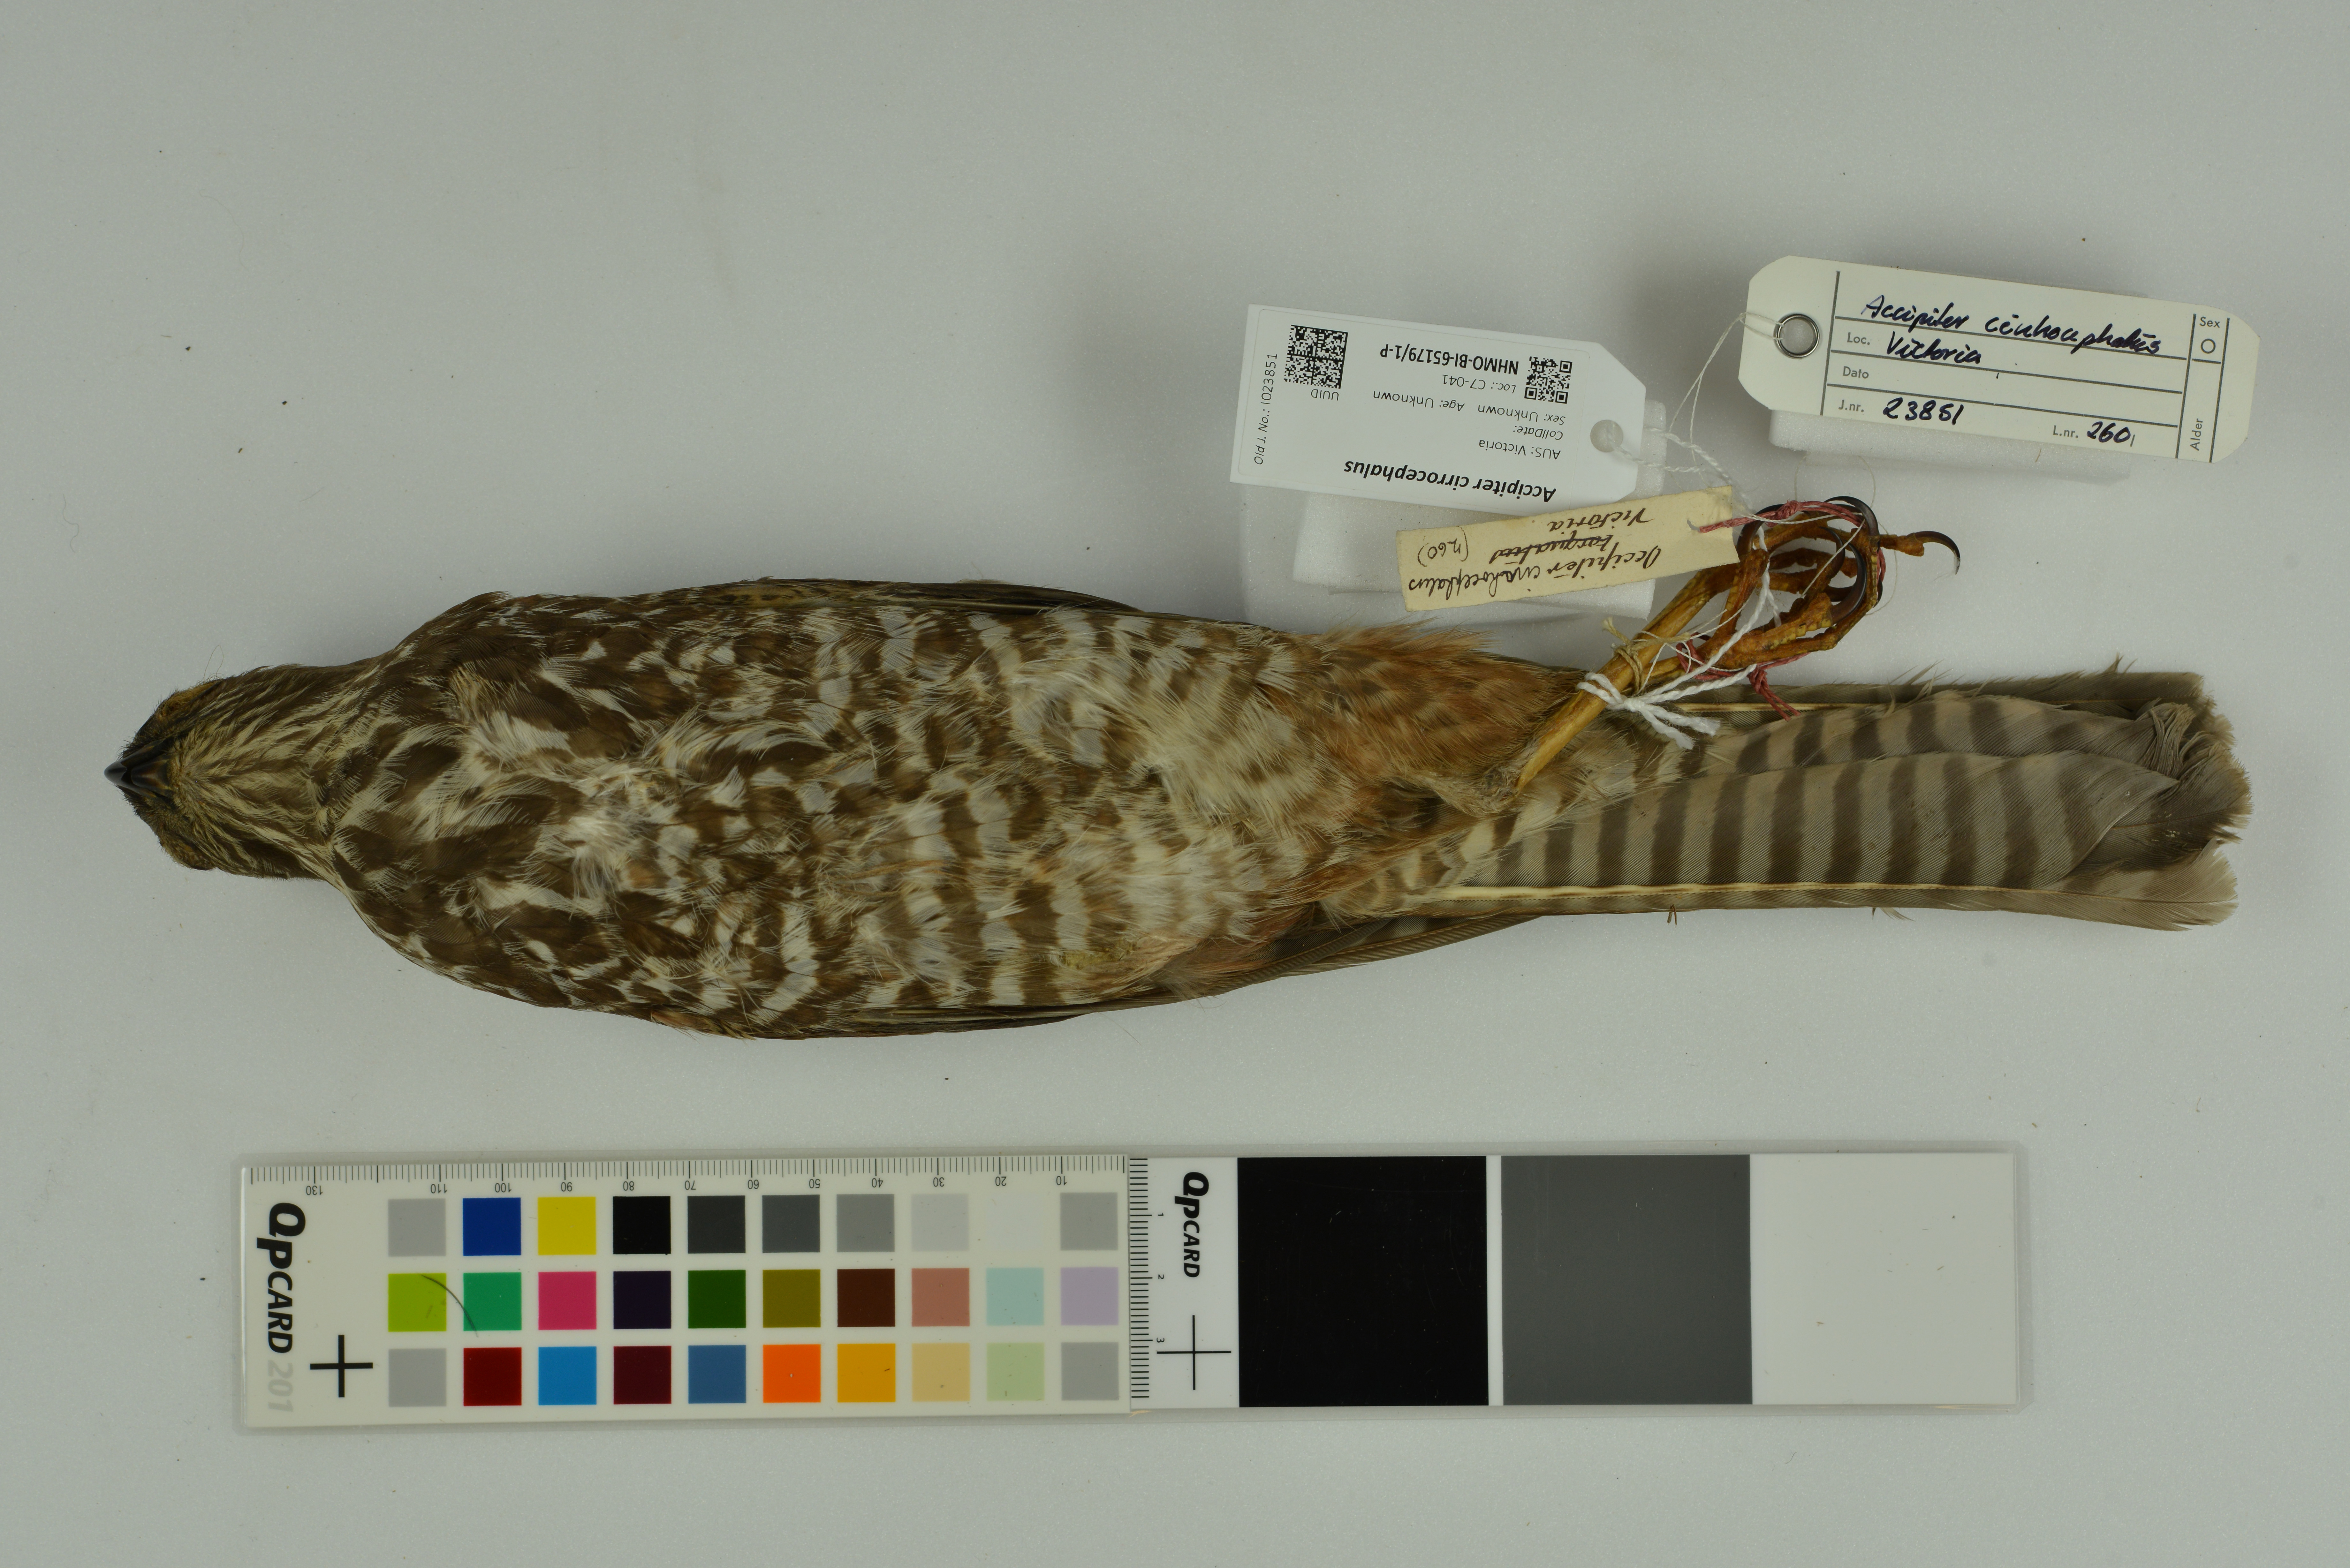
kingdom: Animalia
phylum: Chordata
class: Aves
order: Accipitriformes
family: Accipitridae
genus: Accipiter
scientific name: Accipiter cirrocephalus
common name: Collared sparrowhawk
